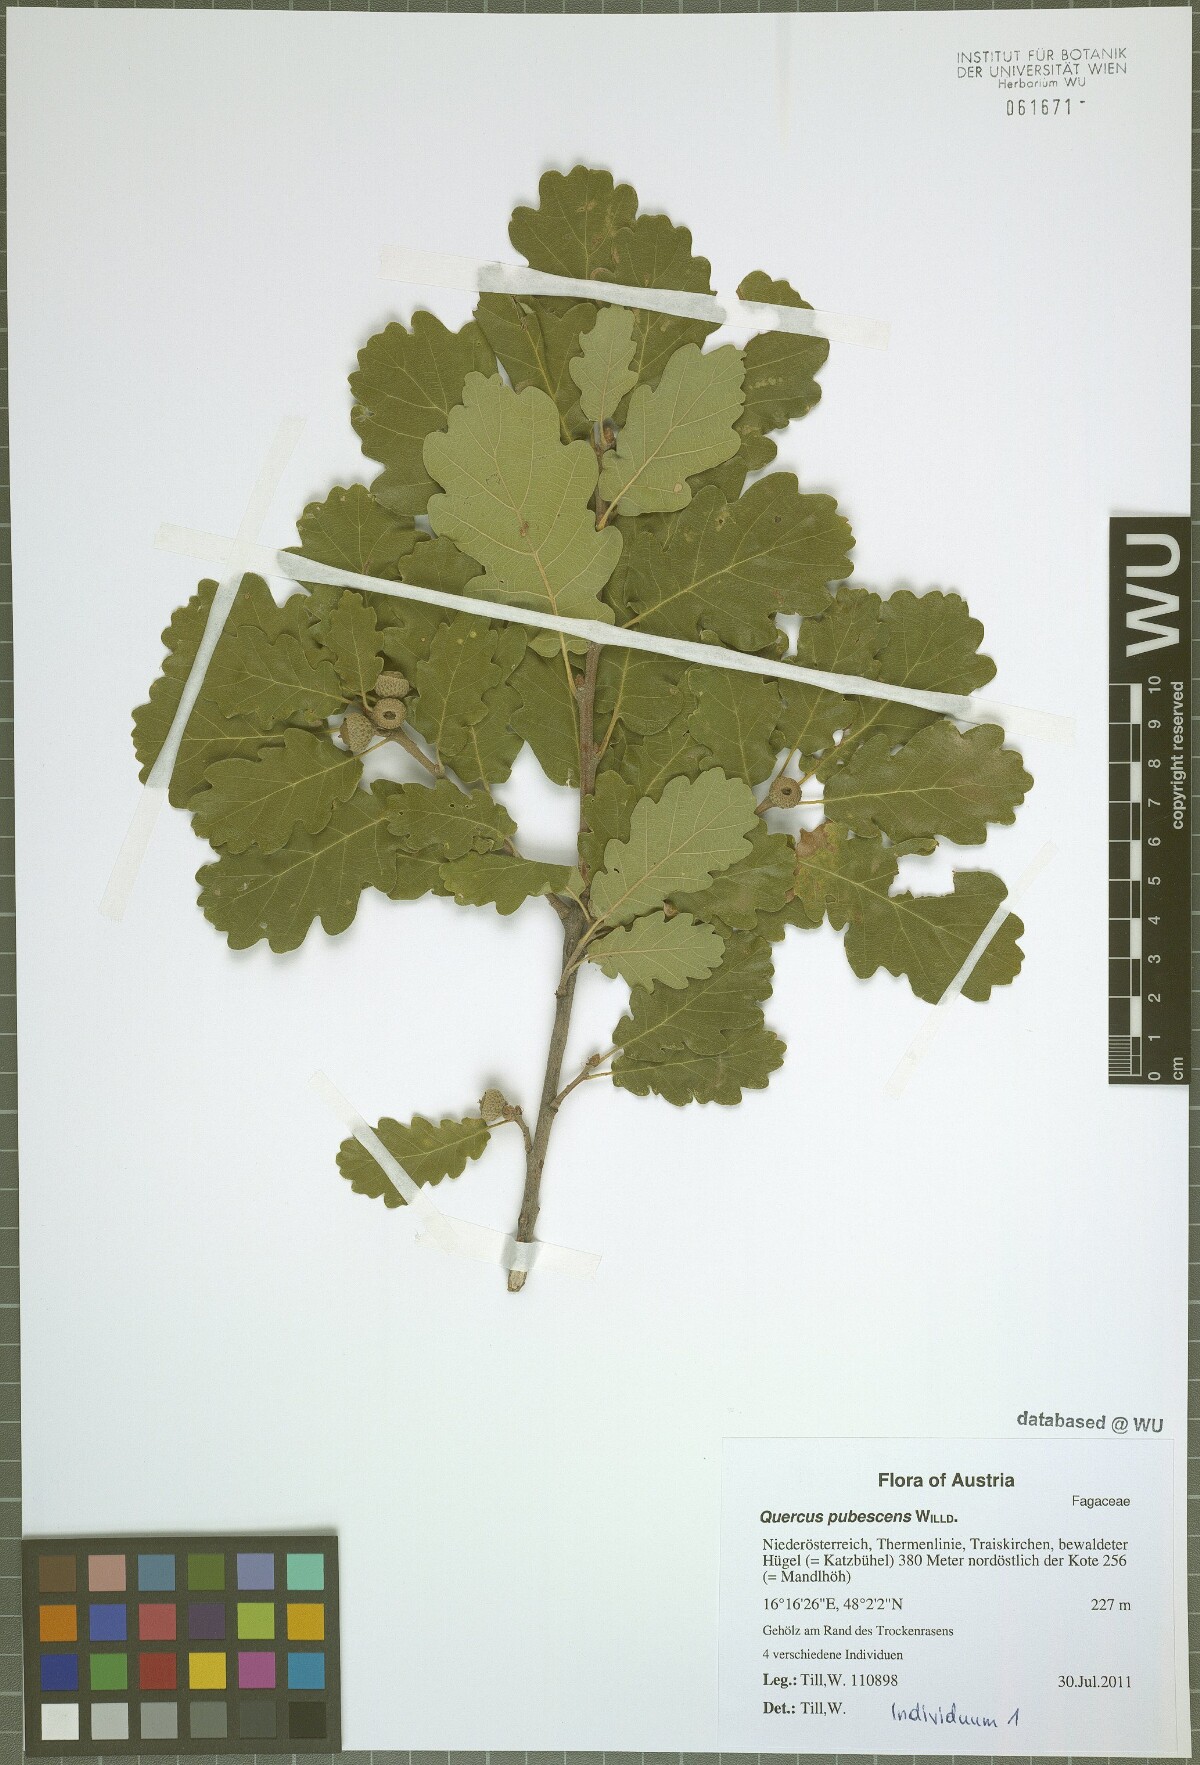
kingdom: Plantae
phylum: Tracheophyta
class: Magnoliopsida
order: Fagales
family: Fagaceae
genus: Quercus
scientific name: Quercus pubescens
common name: Downy oak
